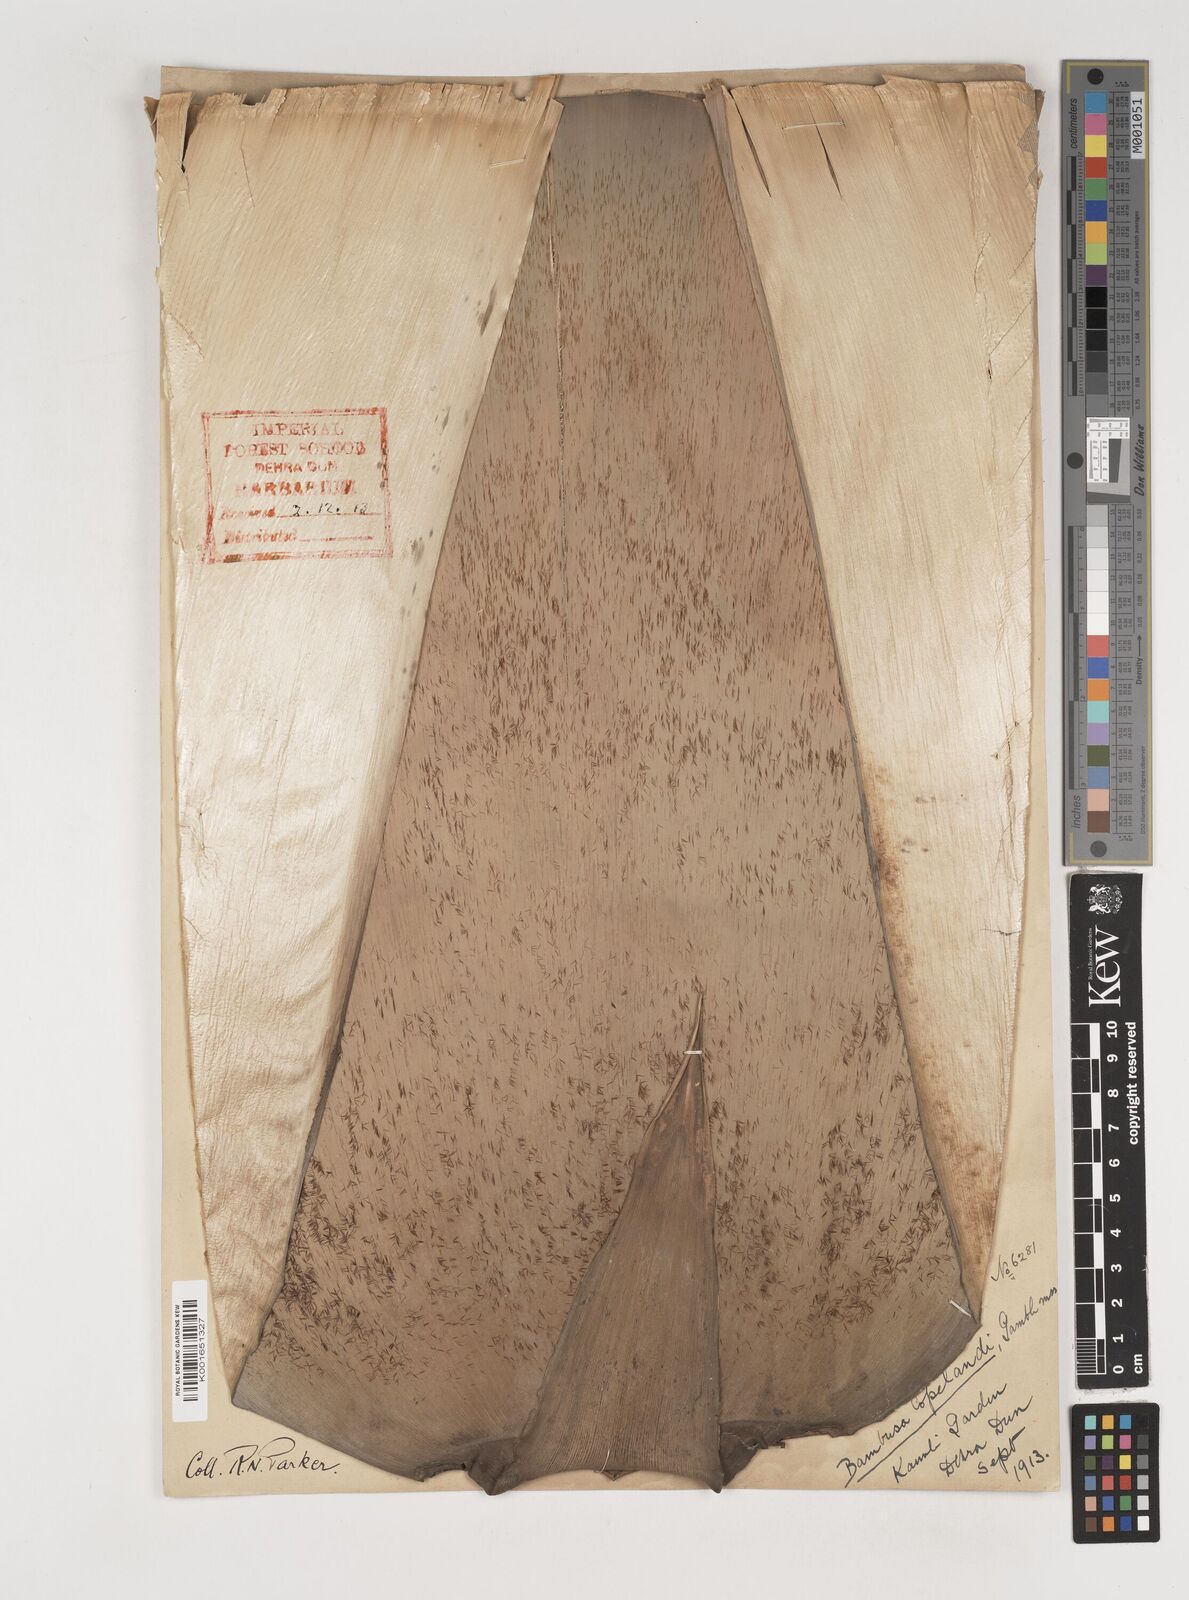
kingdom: Plantae
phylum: Tracheophyta
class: Liliopsida
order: Poales
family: Poaceae
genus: Bambusa
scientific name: Bambusa copelandii
